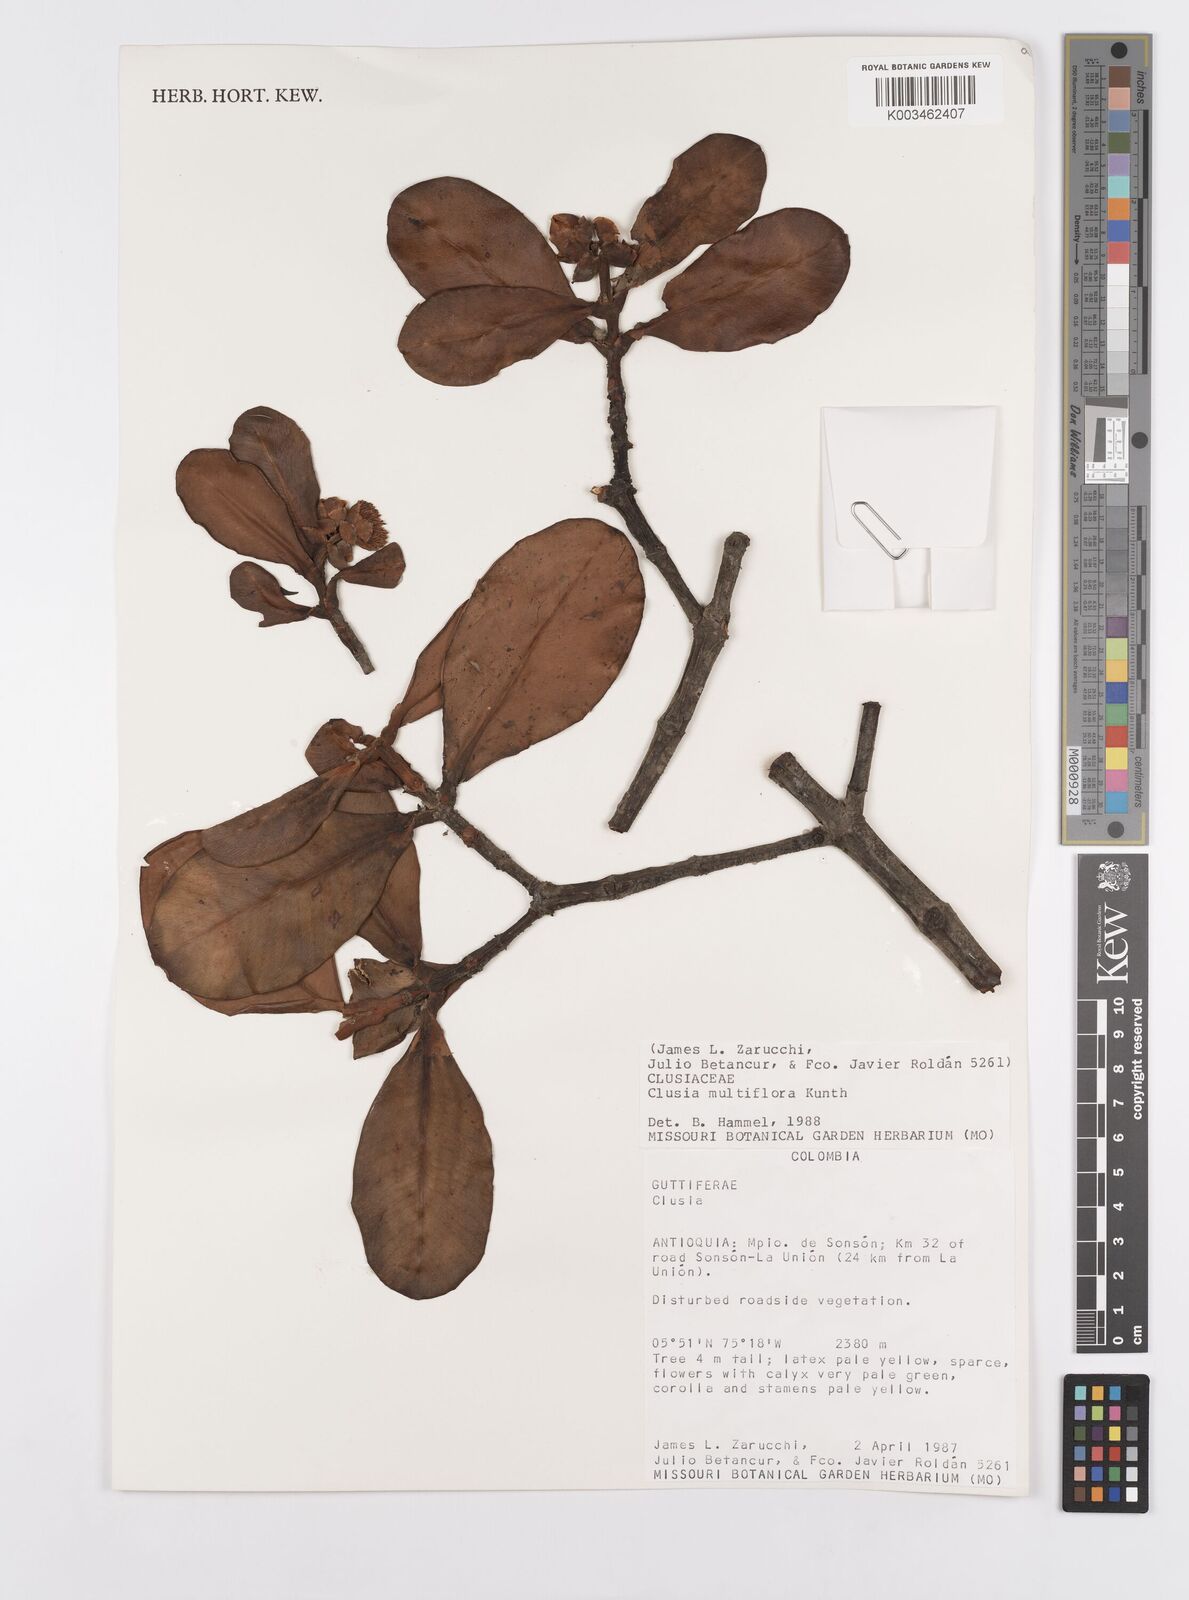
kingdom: Plantae
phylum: Tracheophyta
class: Magnoliopsida
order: Malpighiales
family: Clusiaceae
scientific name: Clusiaceae
